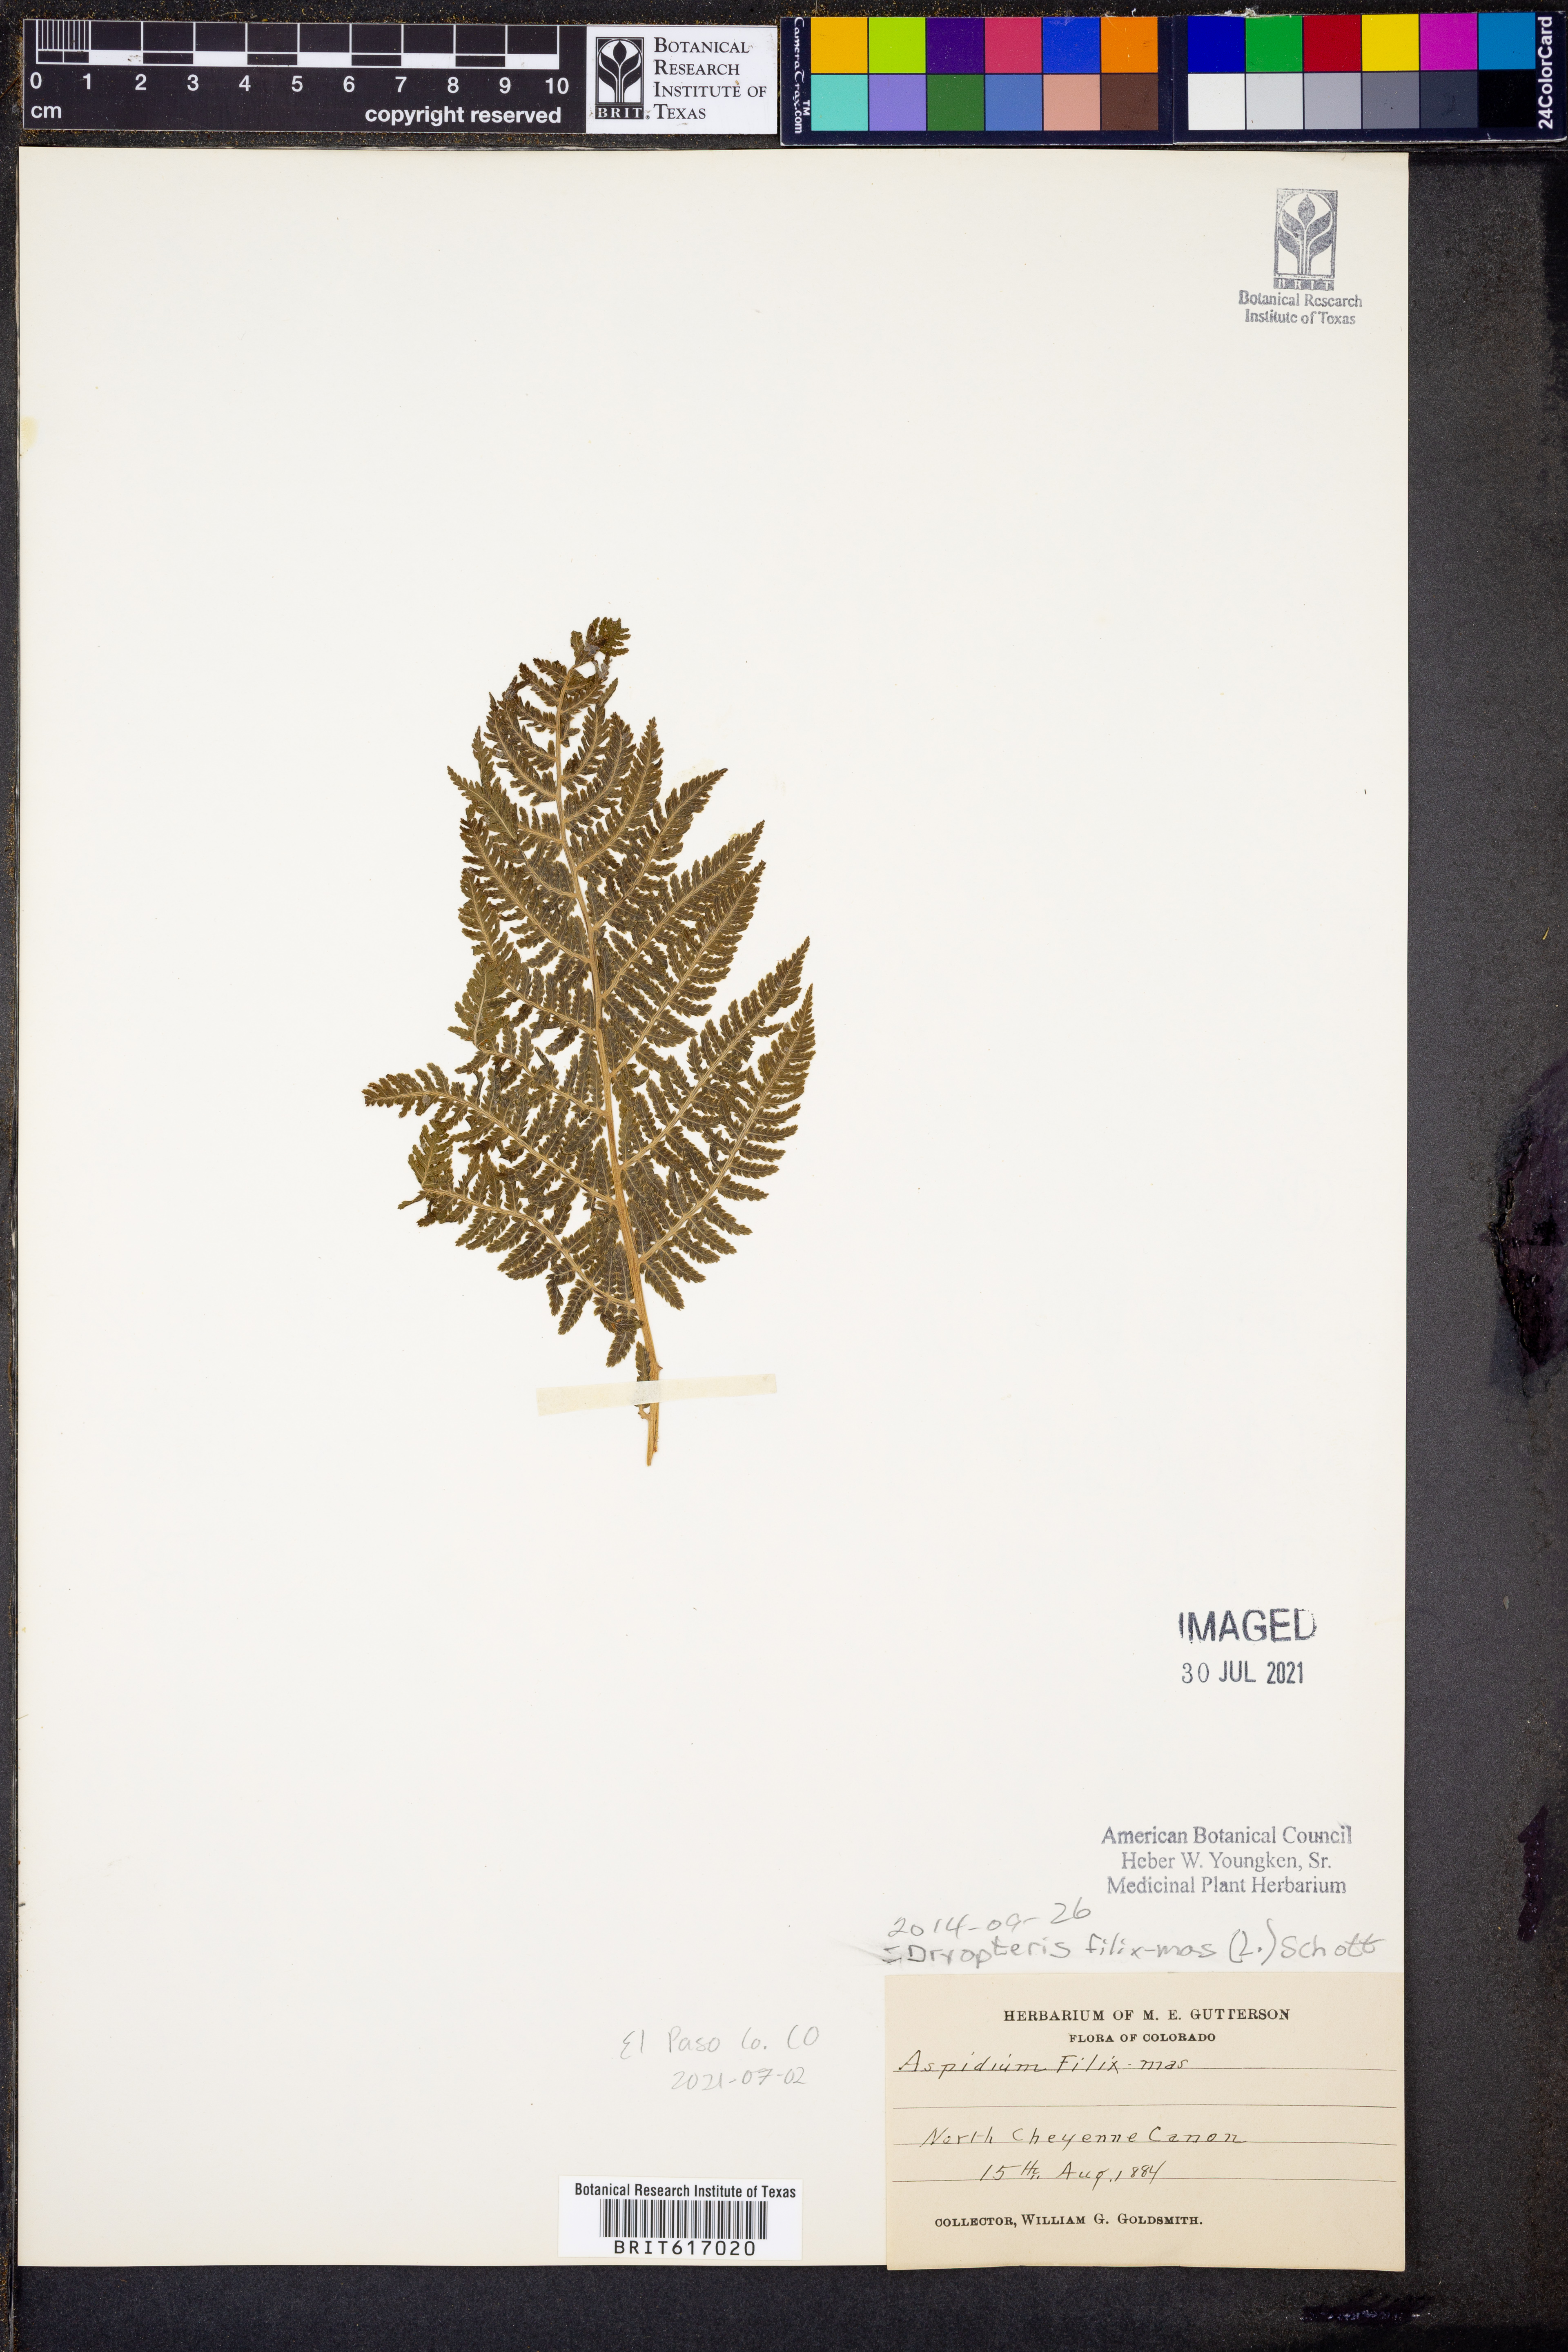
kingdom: Plantae
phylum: Tracheophyta
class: Polypodiopsida
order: Polypodiales
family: Dryopteridaceae
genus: Dryopteris
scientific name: Dryopteris filix-mas
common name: Male fern
